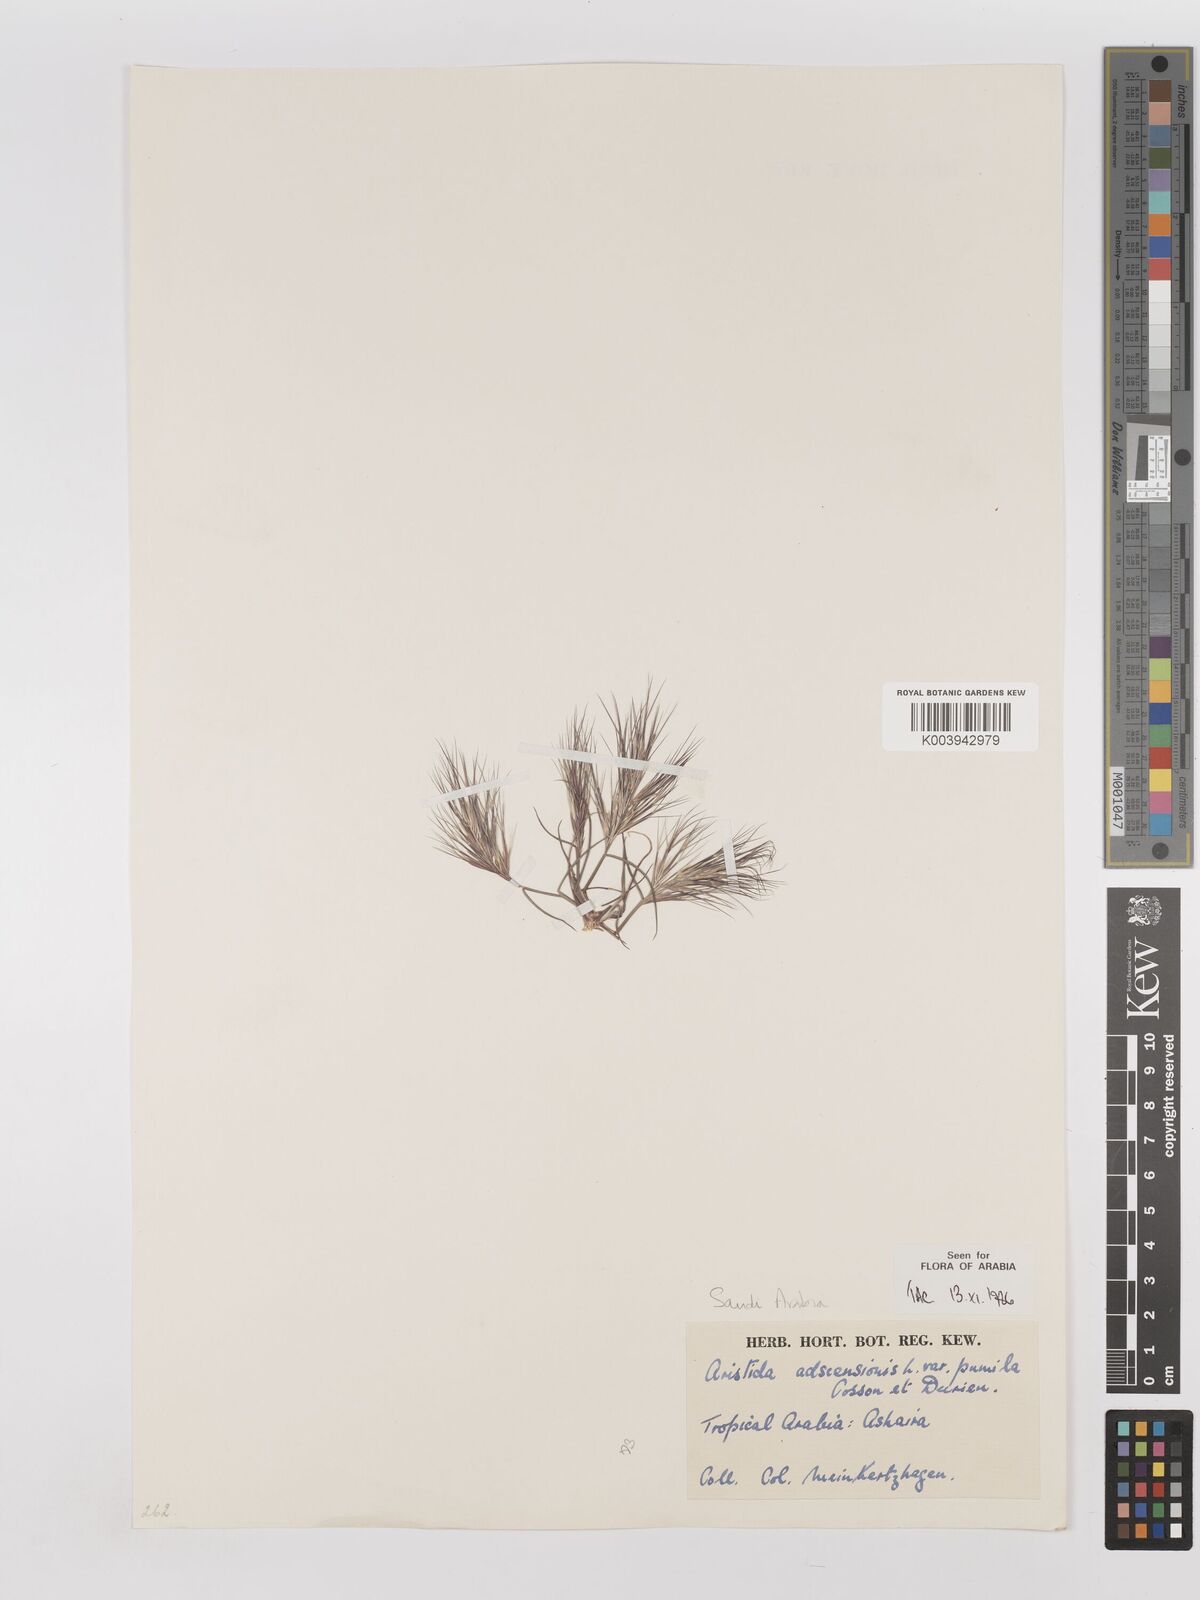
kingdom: Plantae
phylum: Tracheophyta
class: Liliopsida
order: Poales
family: Poaceae
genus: Aristida
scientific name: Aristida adscensionis
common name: Sixweeks threeawn
